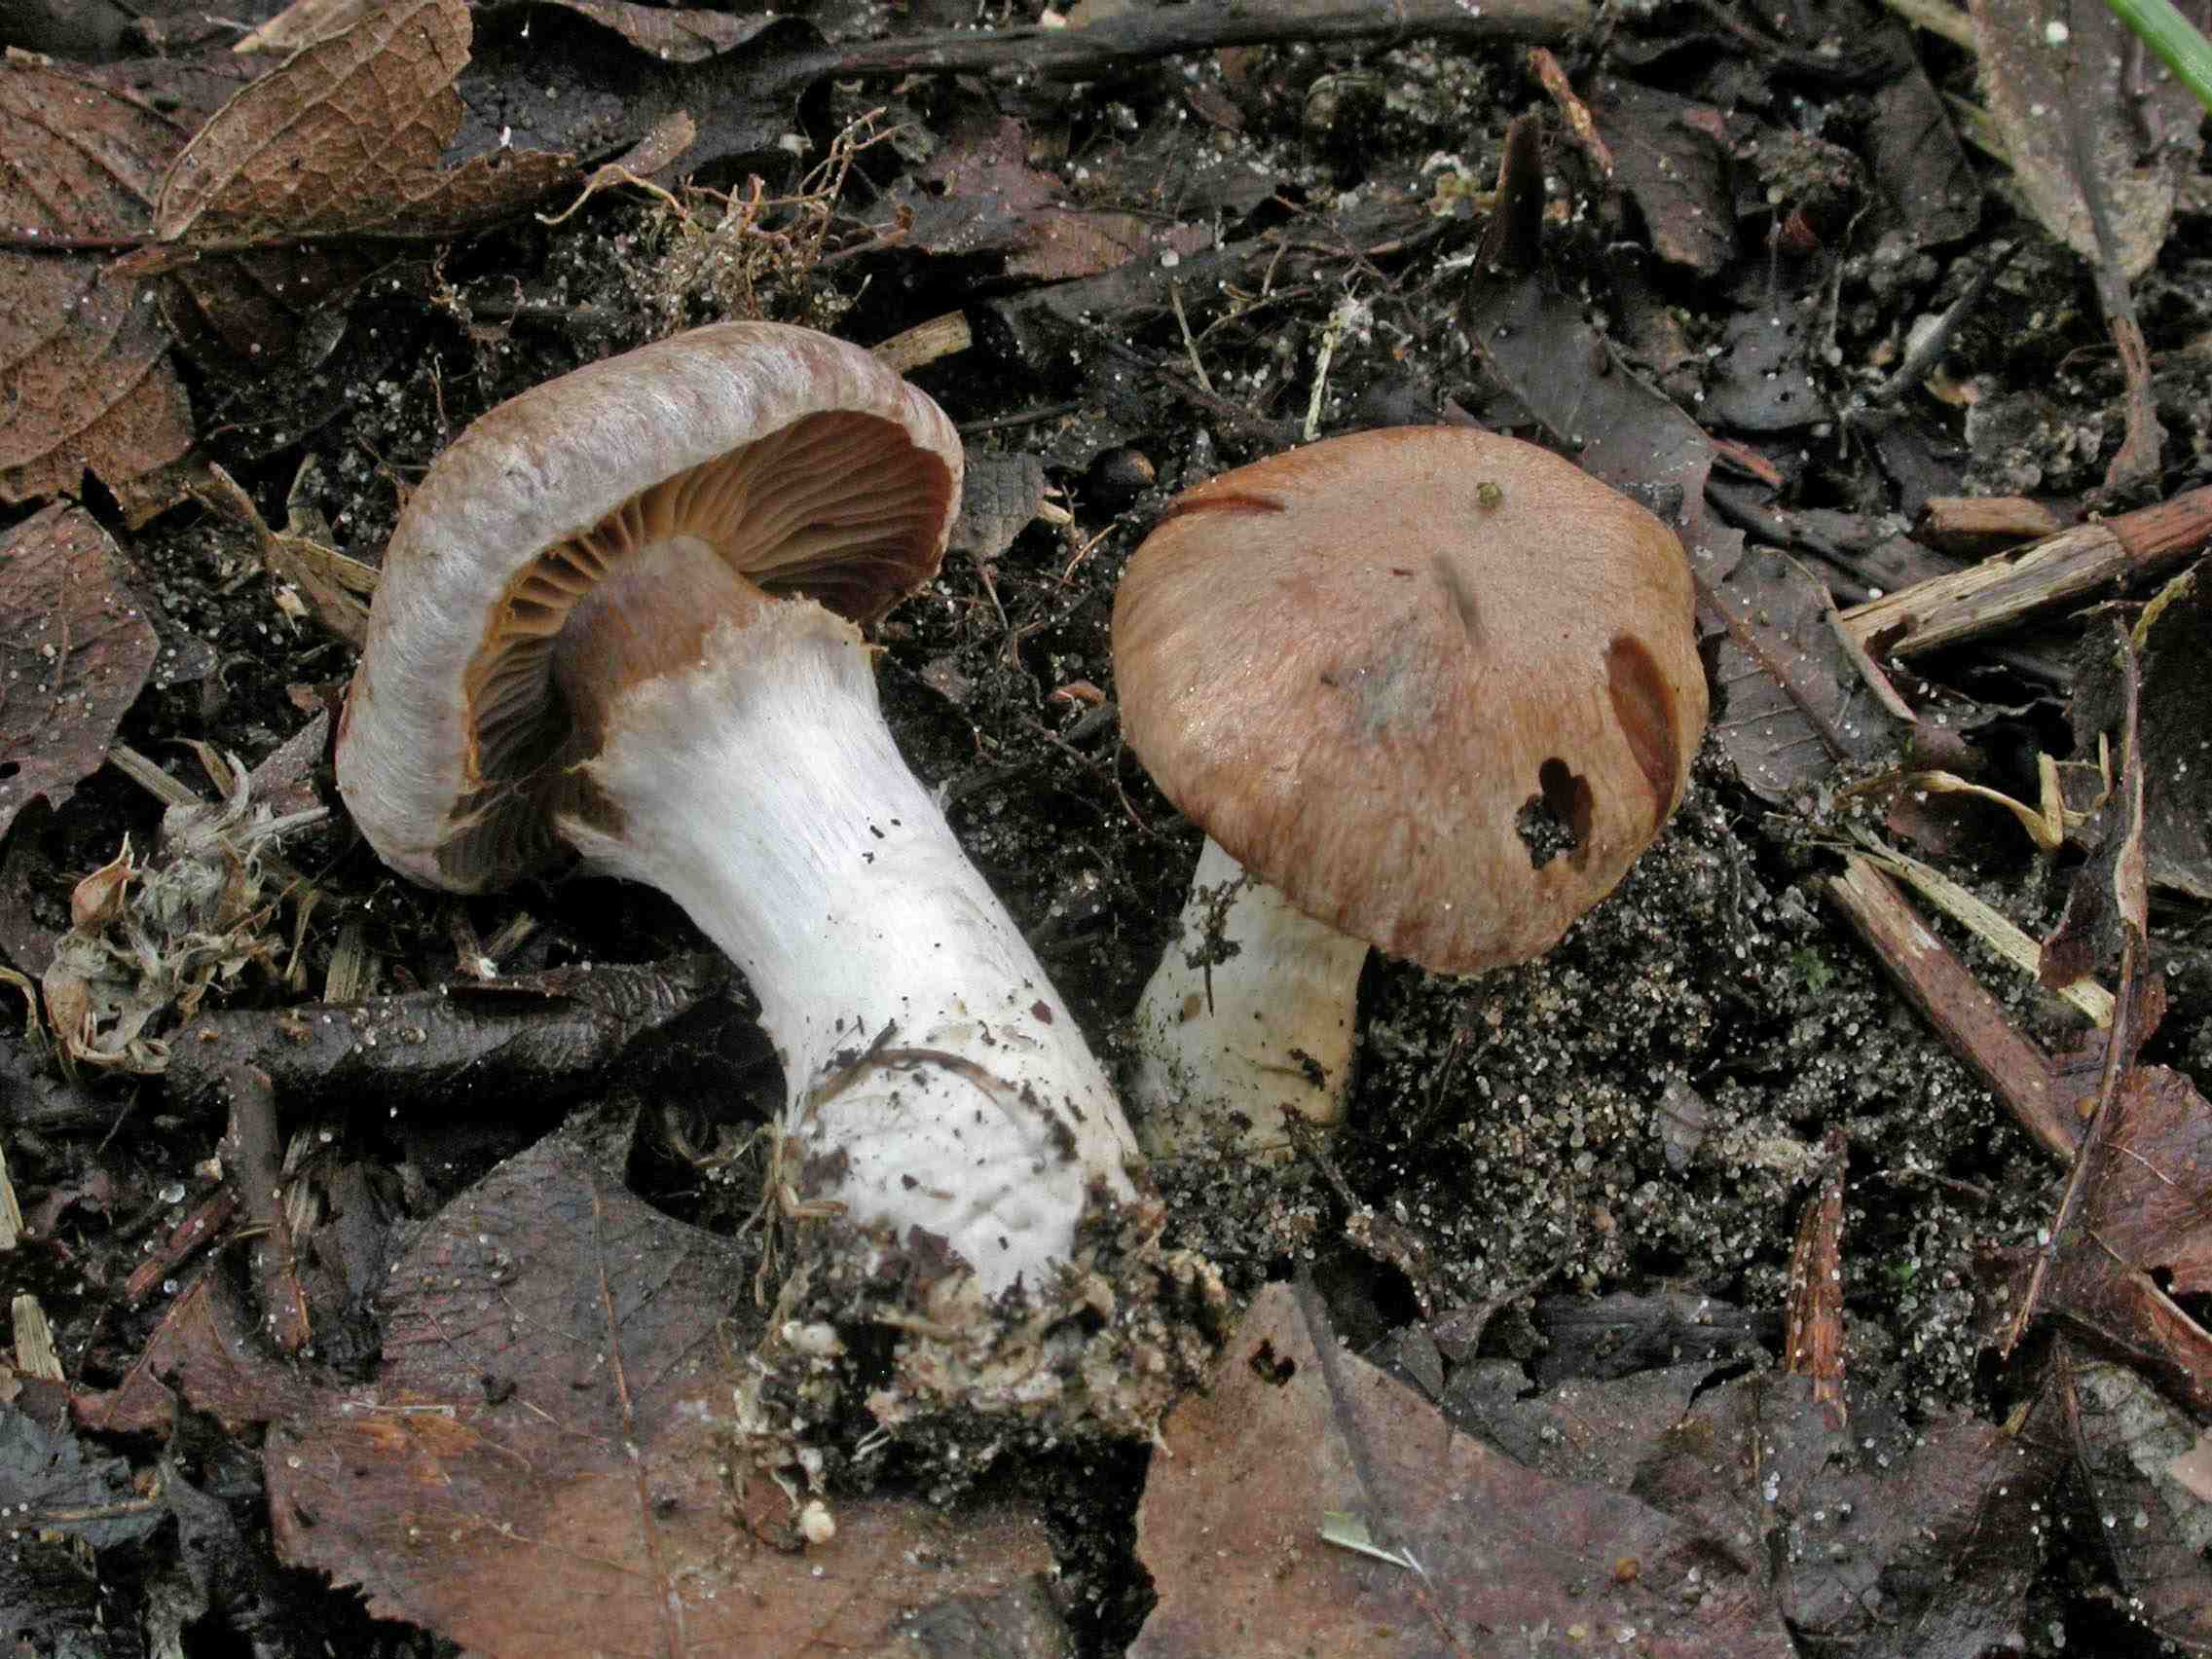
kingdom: Fungi
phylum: Basidiomycota
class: Agaricomycetes
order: Agaricales
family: Cortinariaceae
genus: Cortinarius
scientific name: Cortinarius saturninus
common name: brunviolet slørhat
